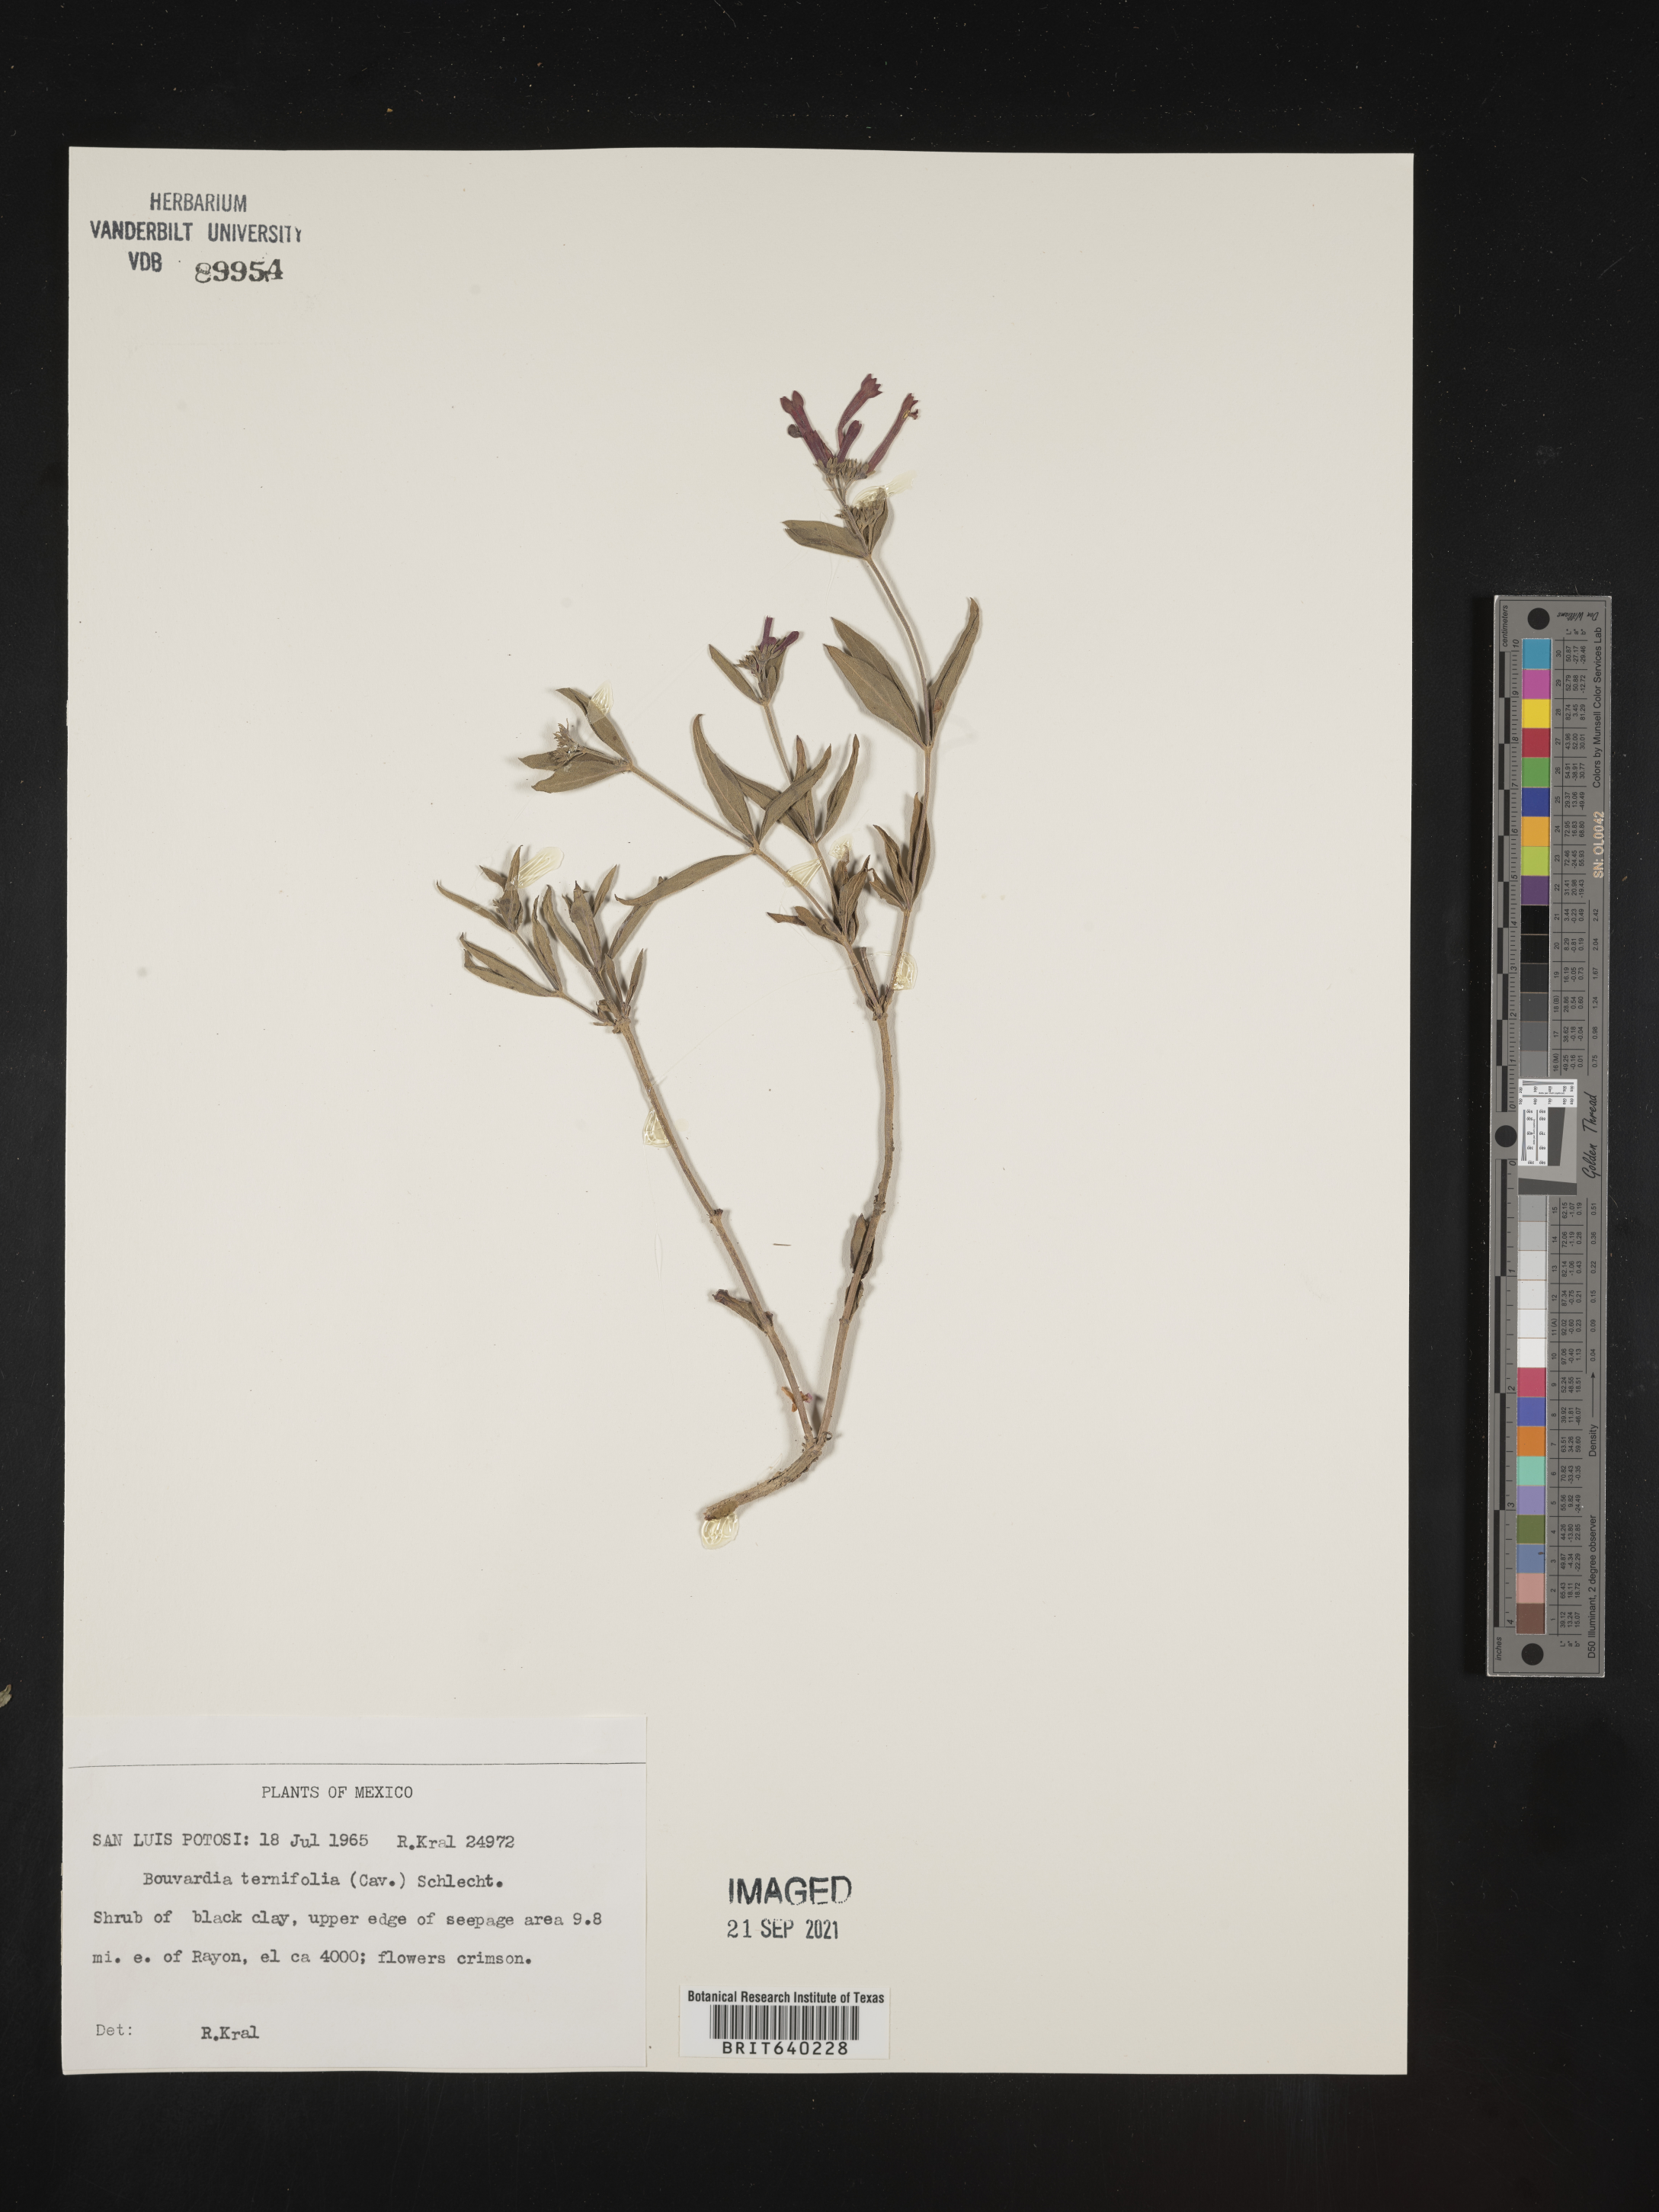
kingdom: Plantae
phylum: Tracheophyta
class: Magnoliopsida
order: Gentianales
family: Rubiaceae
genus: Bouvardia
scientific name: Bouvardia
